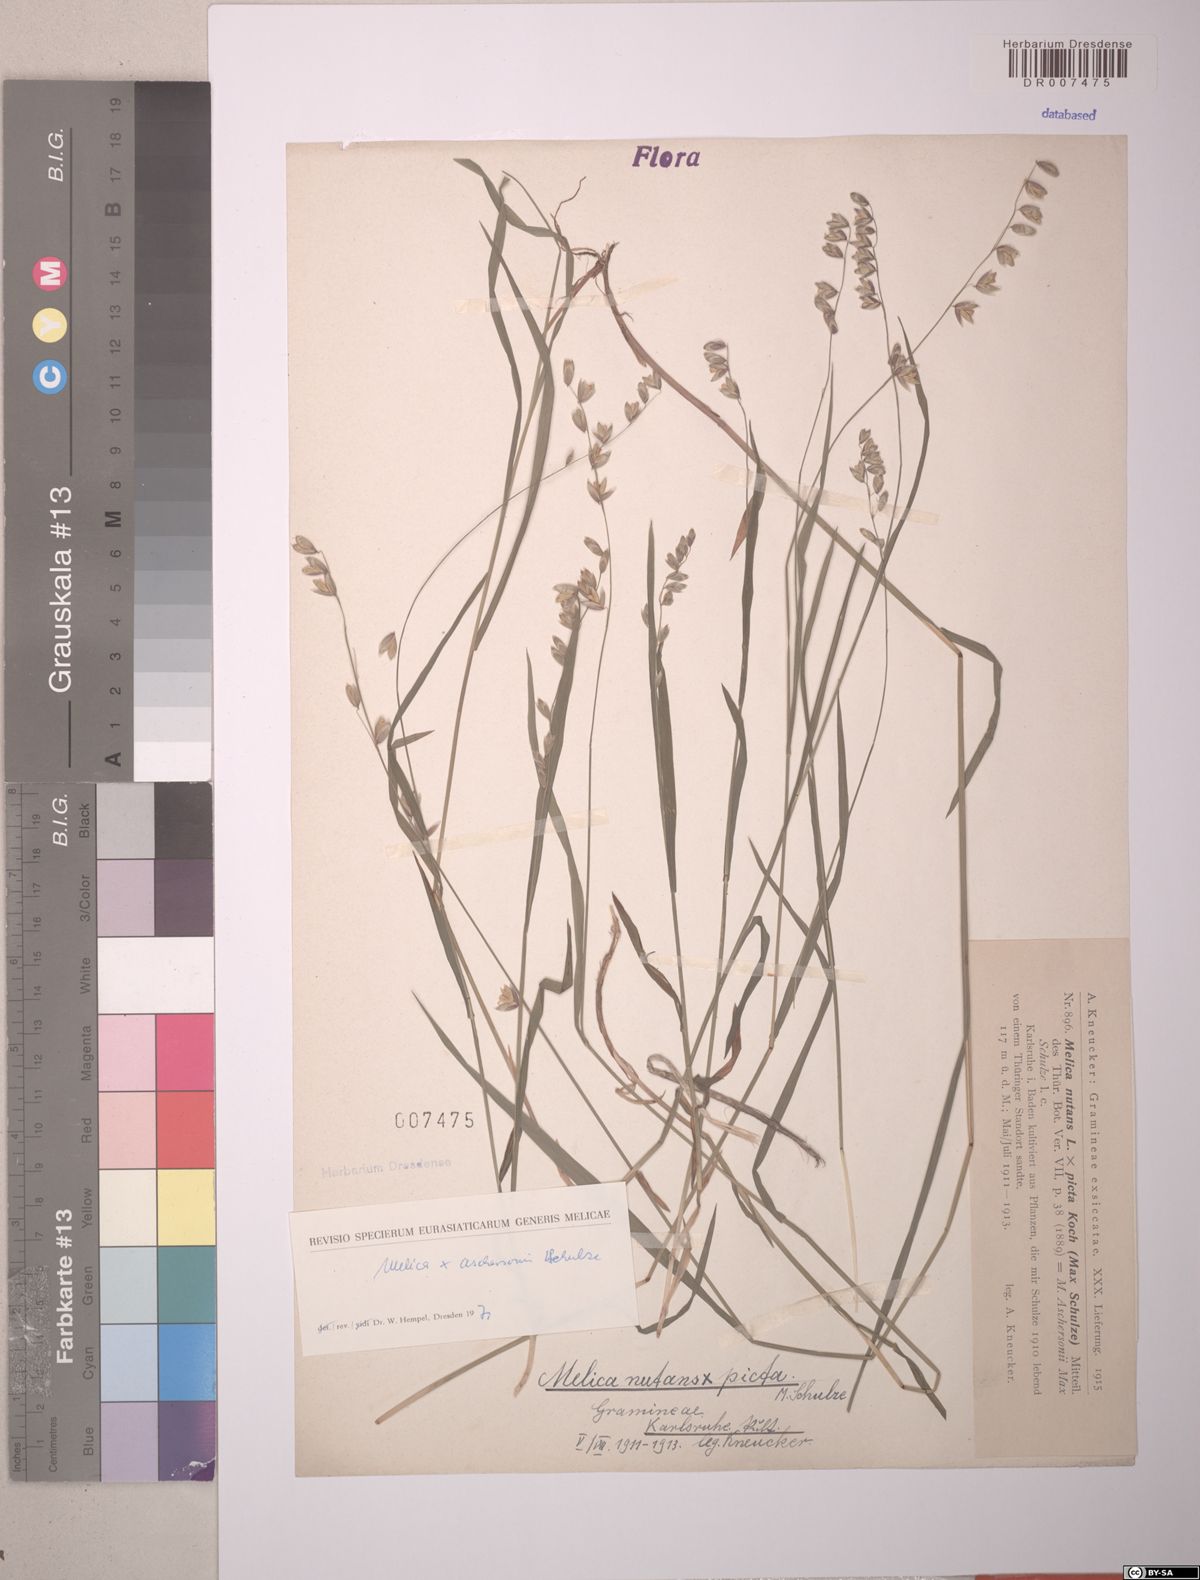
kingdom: Plantae
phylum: Tracheophyta
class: Liliopsida
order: Poales
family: Poaceae
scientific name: Poaceae
